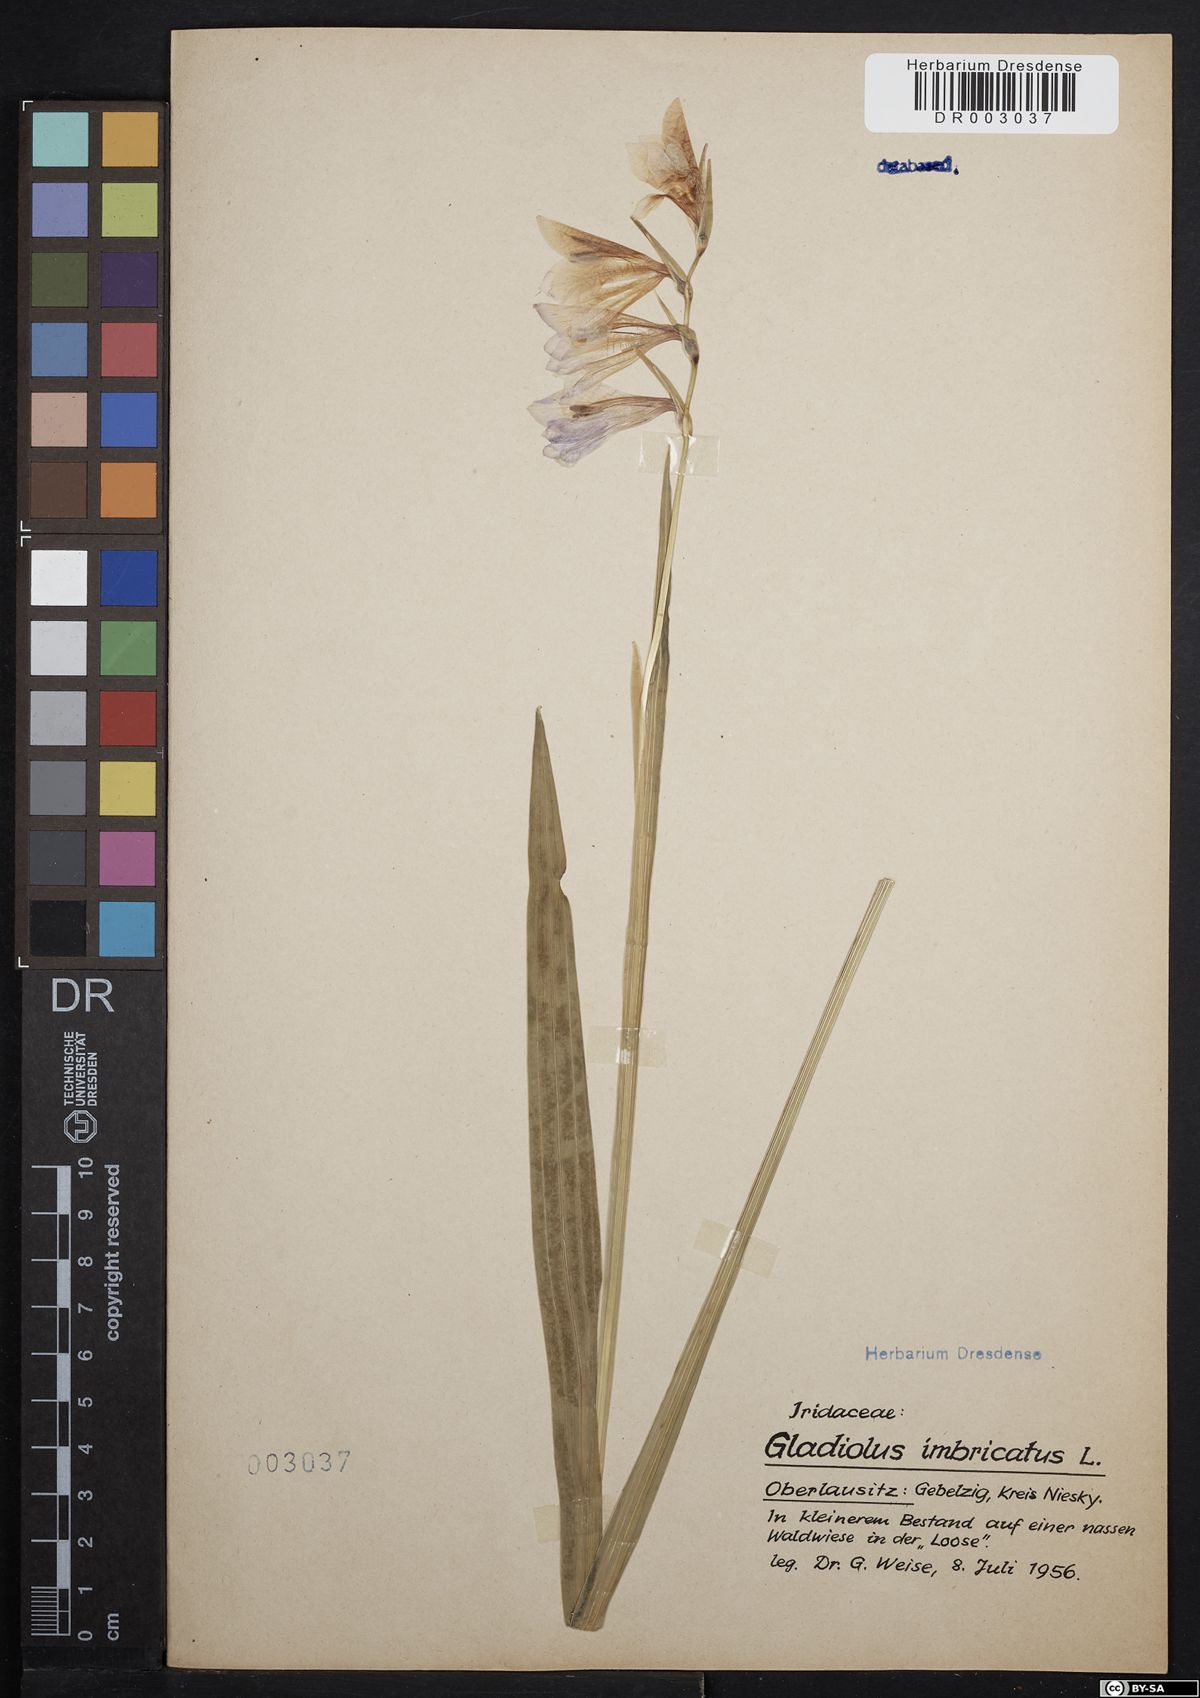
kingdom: Plantae
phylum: Tracheophyta
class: Liliopsida
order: Asparagales
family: Iridaceae
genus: Gladiolus
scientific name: Gladiolus imbricatus
